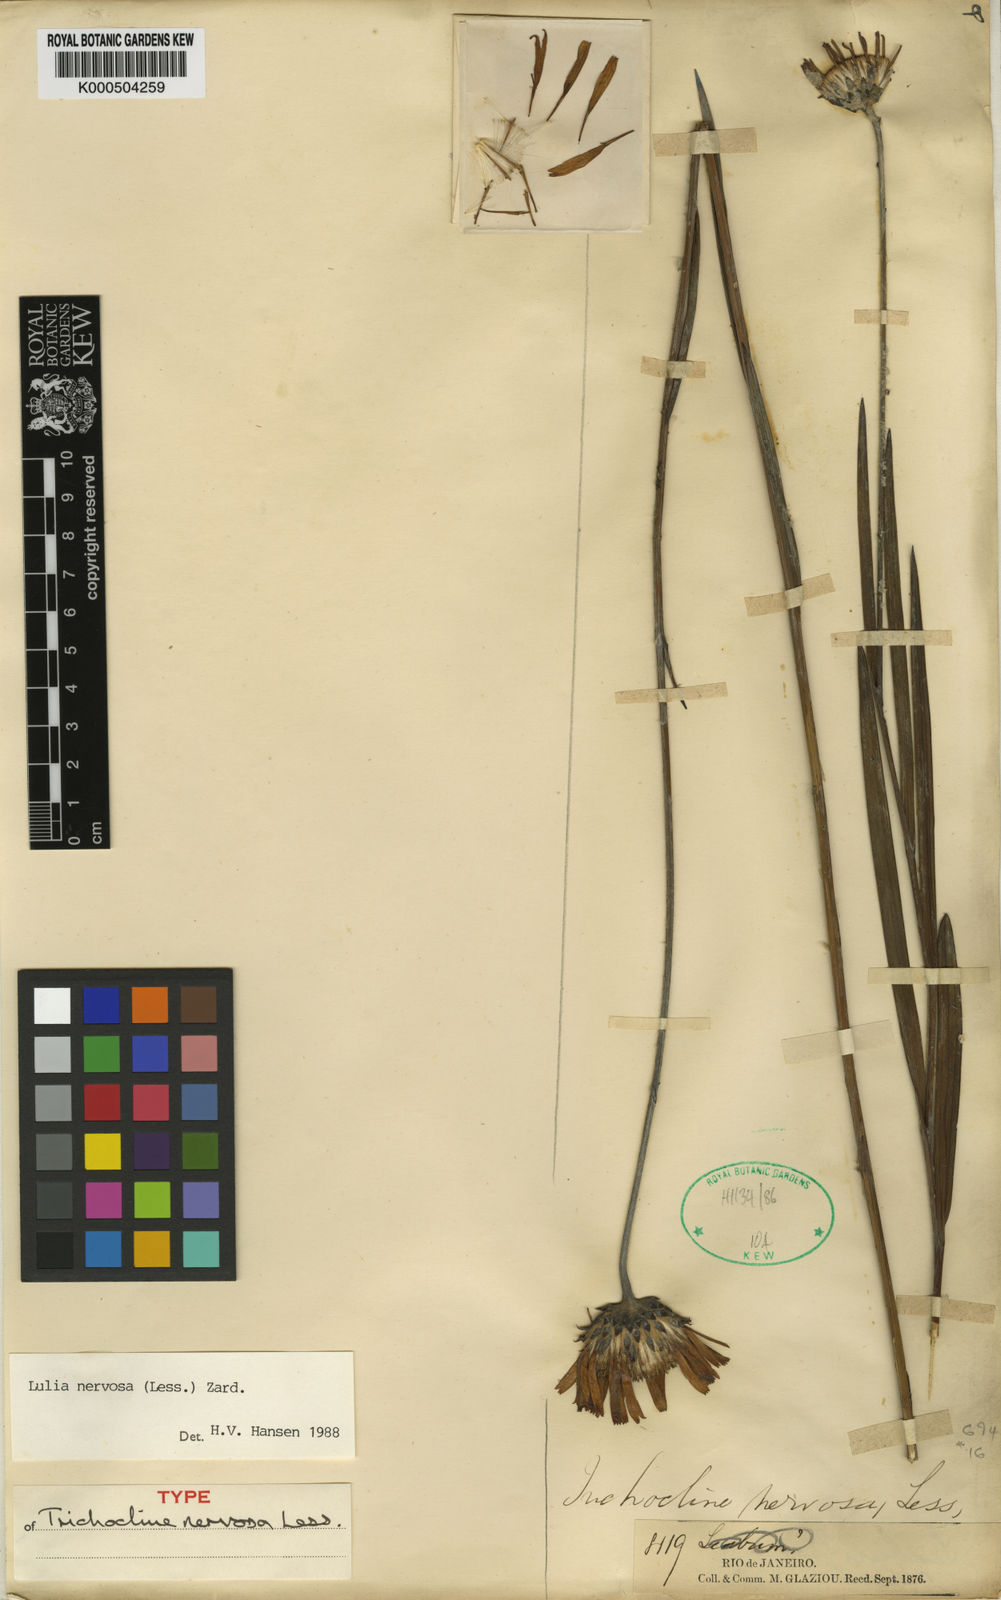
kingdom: Plantae
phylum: Tracheophyta
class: Magnoliopsida
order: Asterales
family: Asteraceae
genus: Lulia
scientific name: Lulia nervosa
